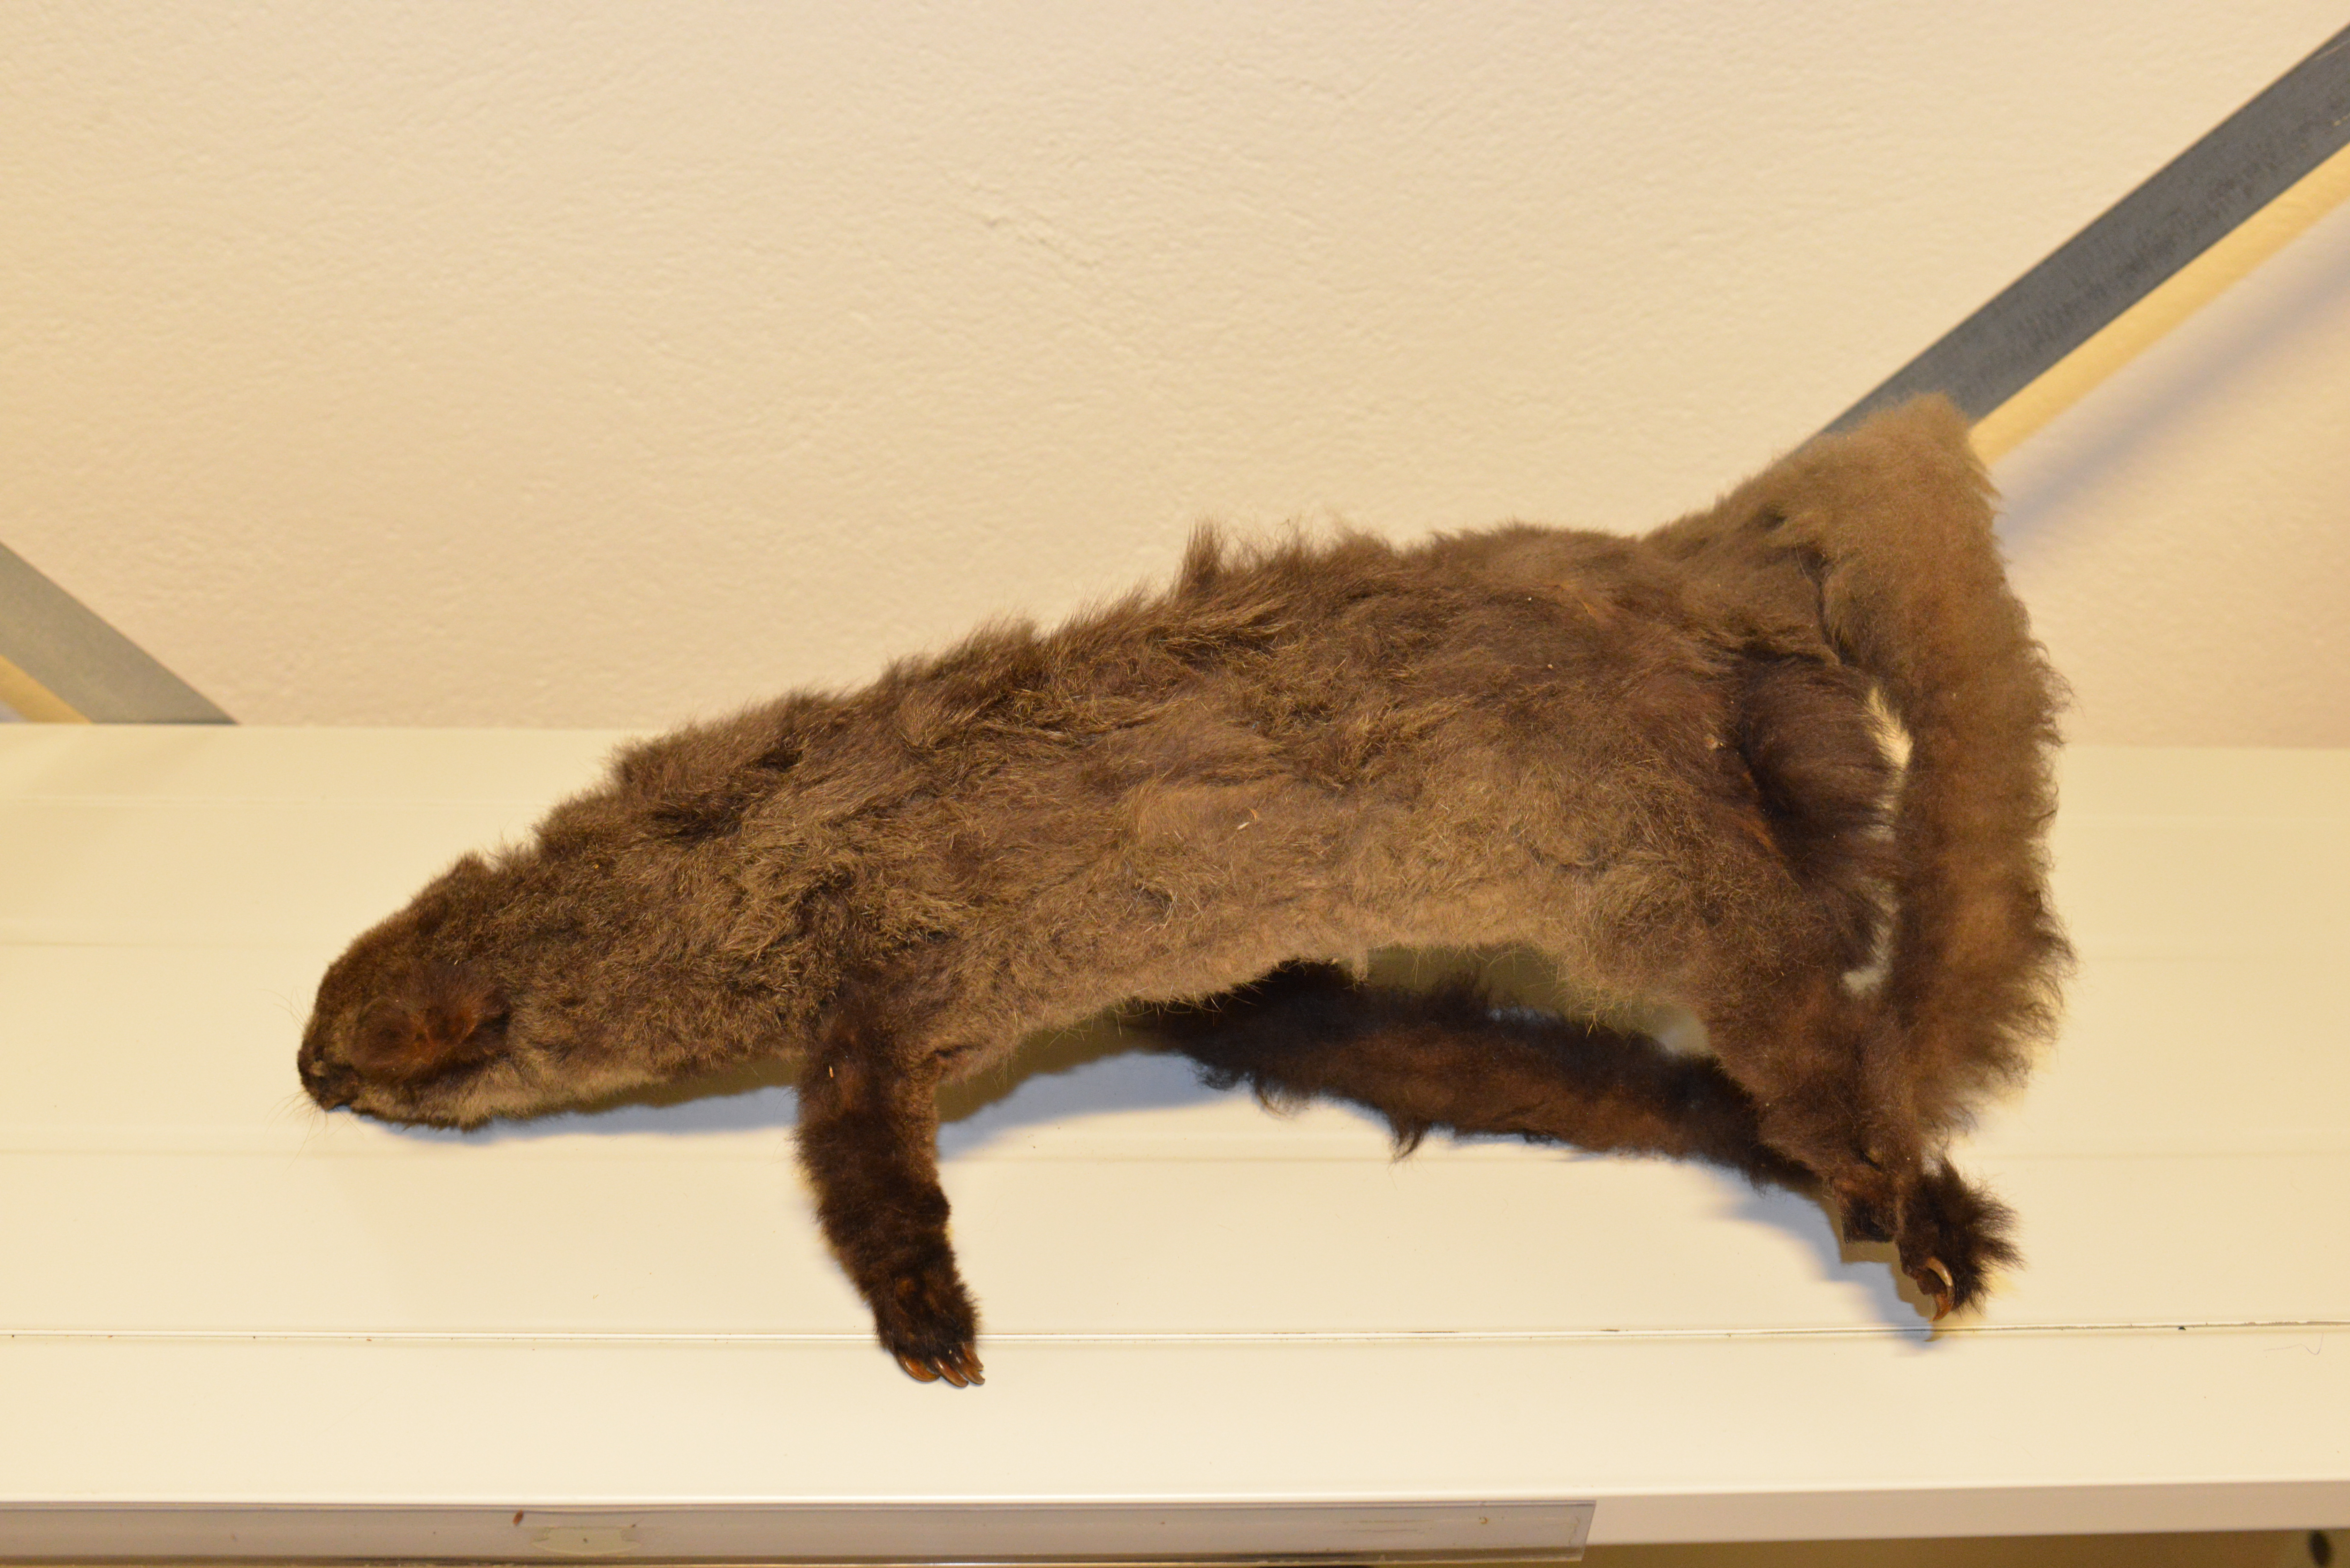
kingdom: Animalia
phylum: Chordata
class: Mammalia
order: Diprotodontia
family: Pseudocheiridae
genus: Petauroides
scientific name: Petauroides volans
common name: Greater glider
